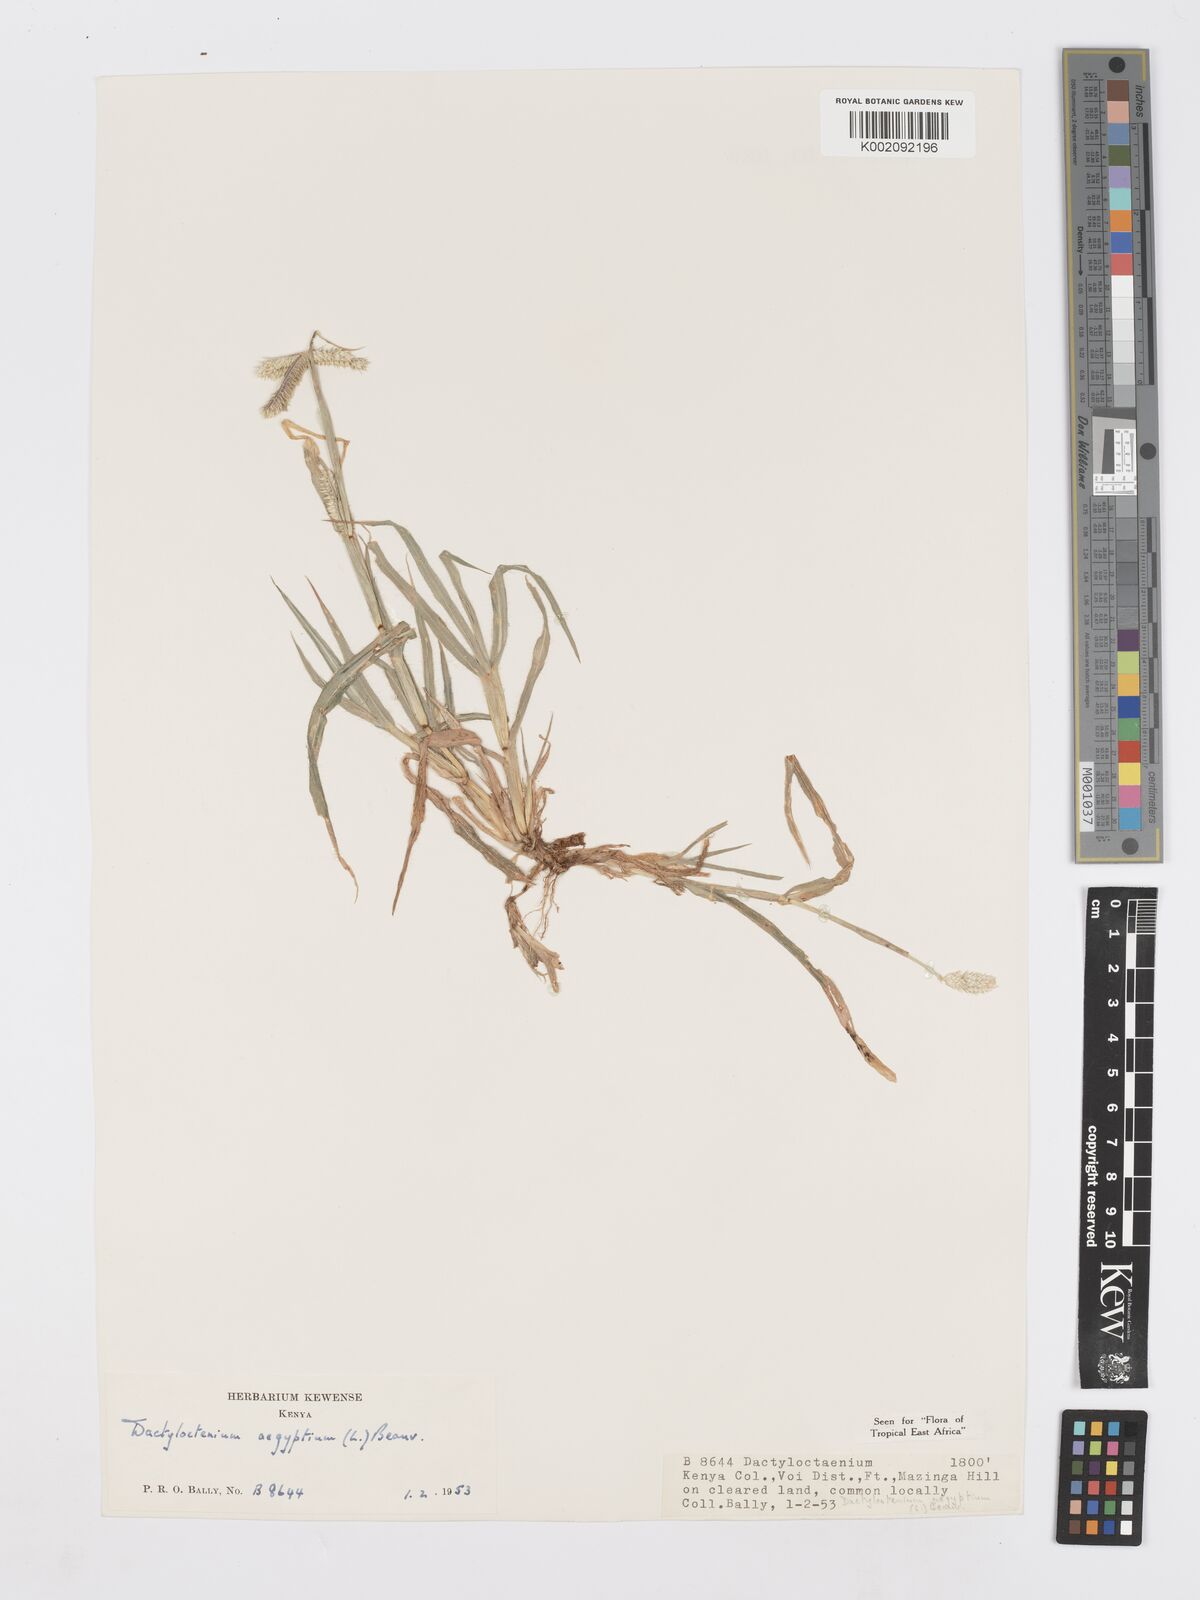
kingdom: Plantae
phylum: Tracheophyta
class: Liliopsida
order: Poales
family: Poaceae
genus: Dactyloctenium
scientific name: Dactyloctenium aegyptium
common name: Egyptian grass
